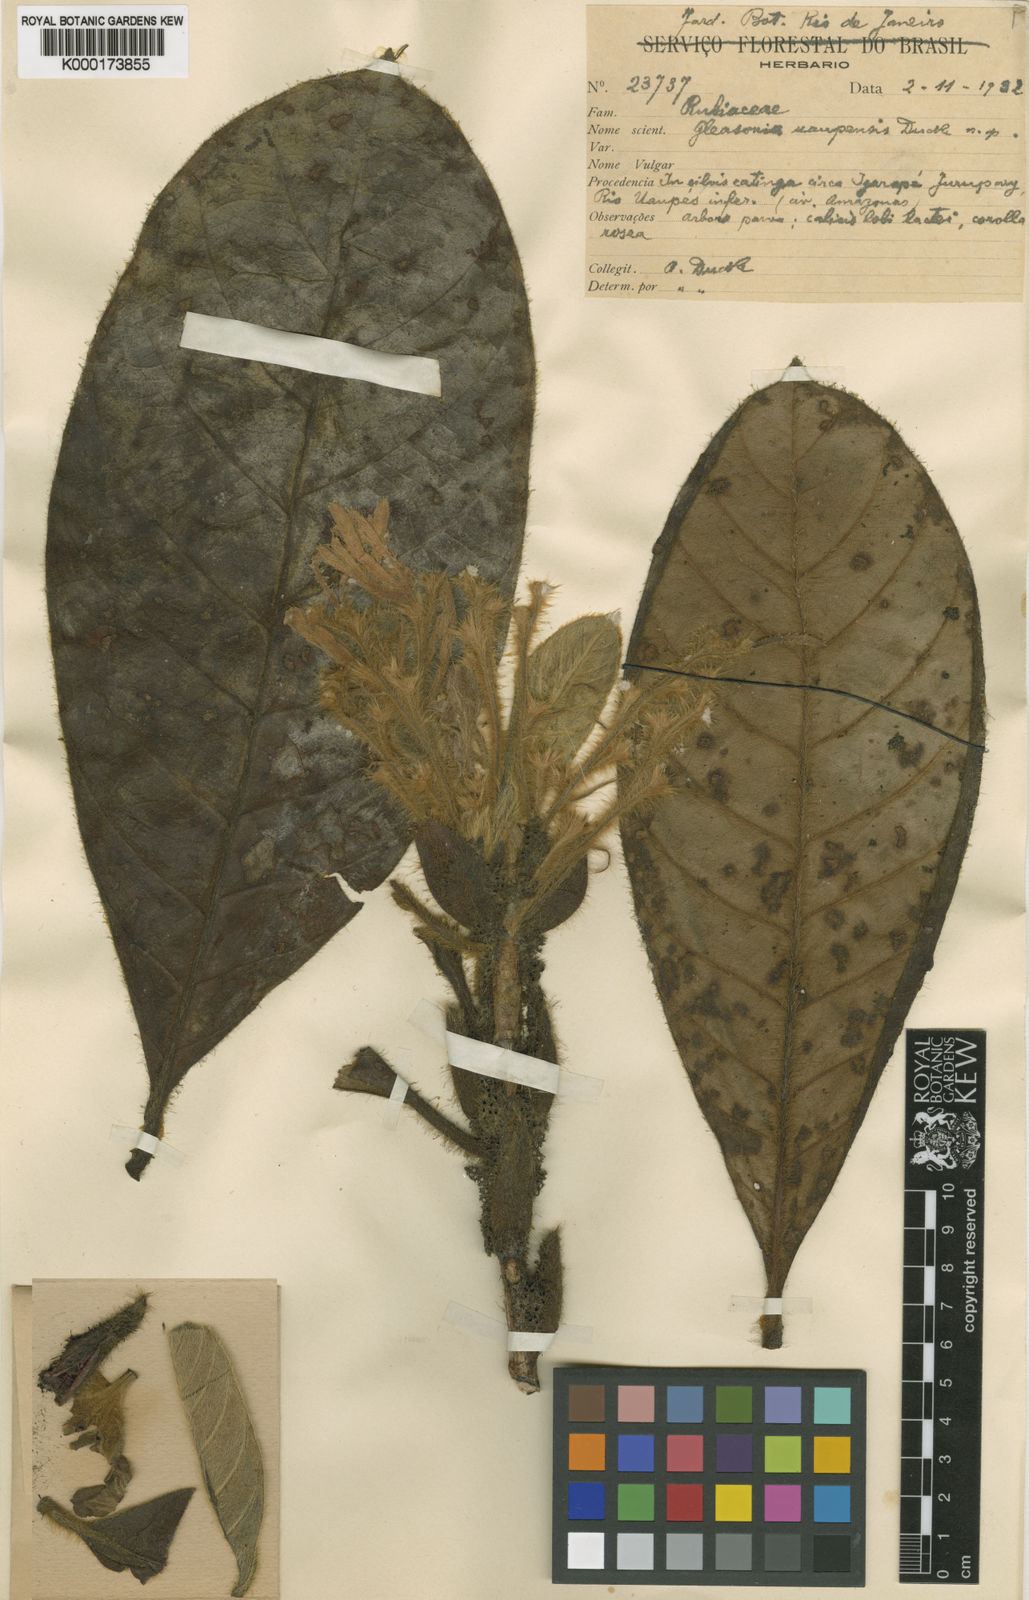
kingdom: Plantae
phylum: Tracheophyta
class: Magnoliopsida
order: Gentianales
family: Rubiaceae
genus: Gleasonia
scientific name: Gleasonia uaupensis
